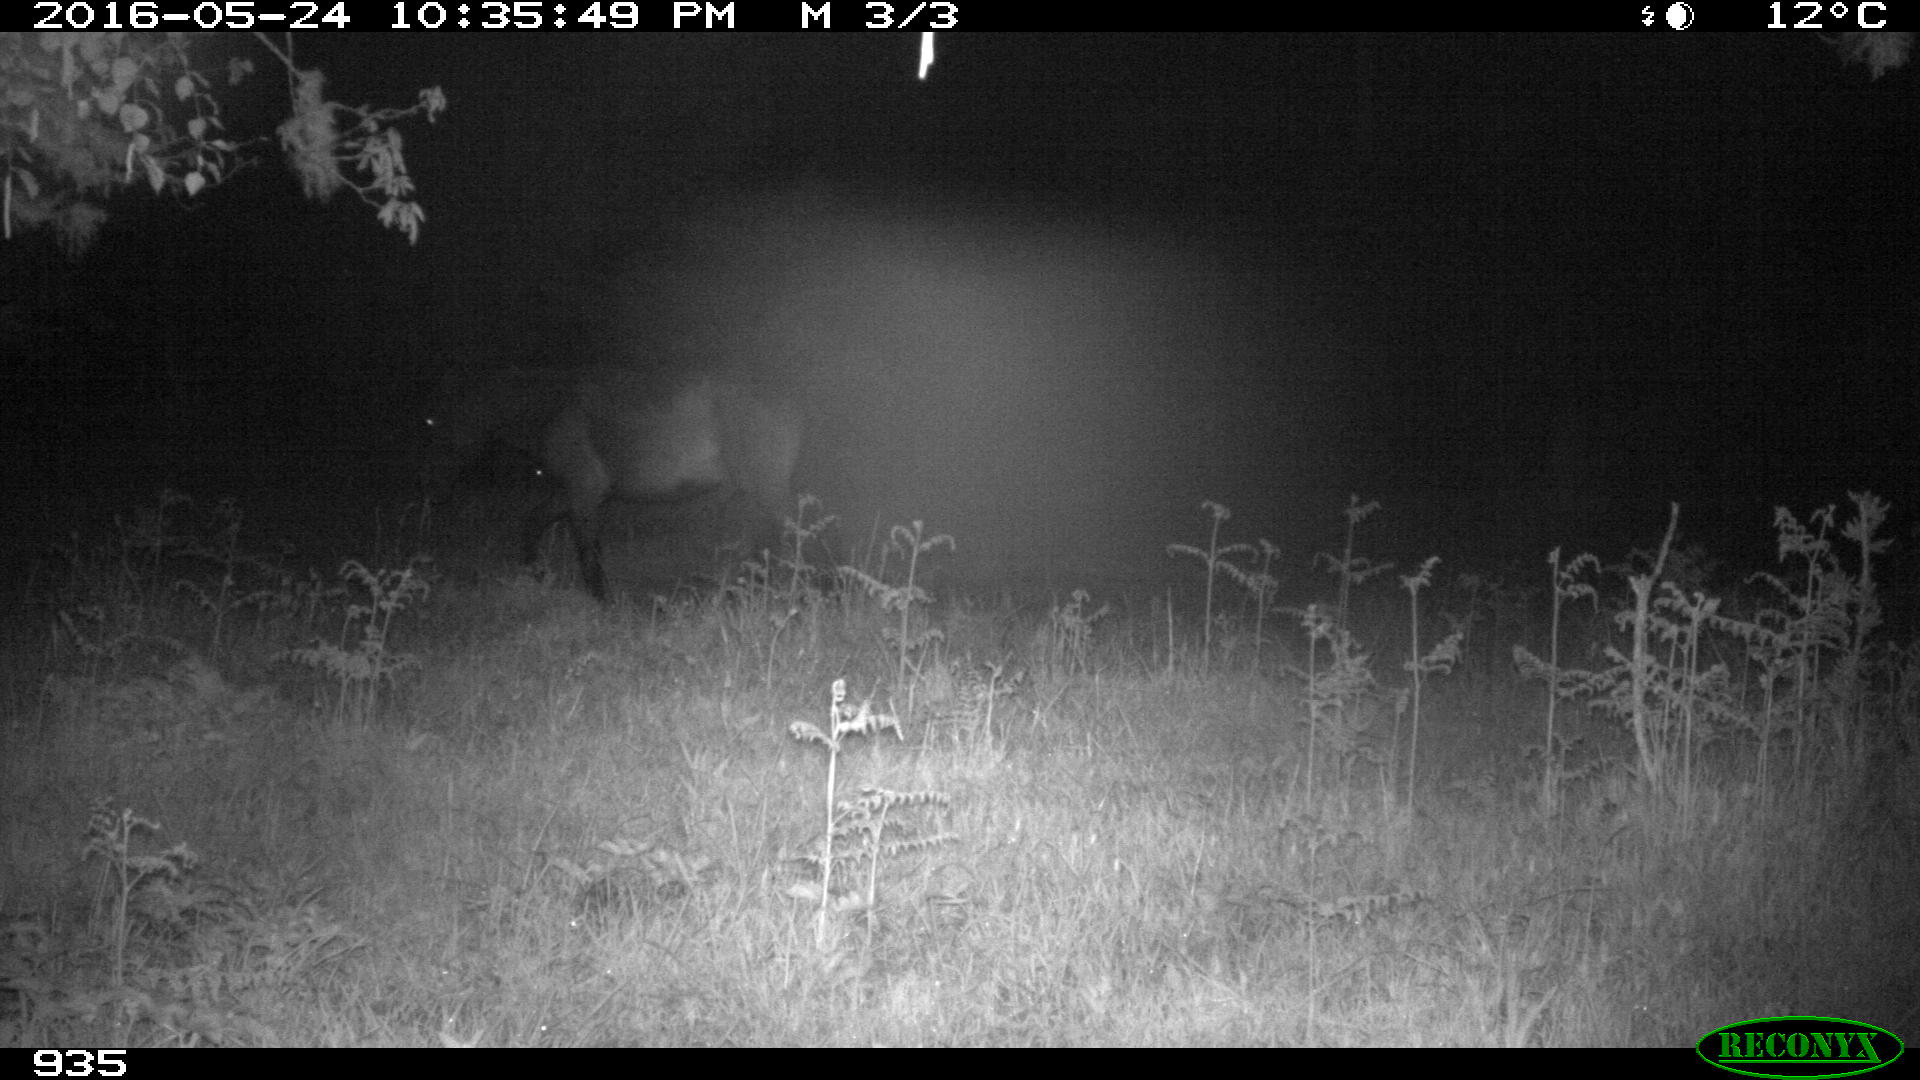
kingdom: Animalia
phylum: Chordata
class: Mammalia
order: Perissodactyla
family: Equidae
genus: Equus
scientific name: Equus caballus
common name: Horse
